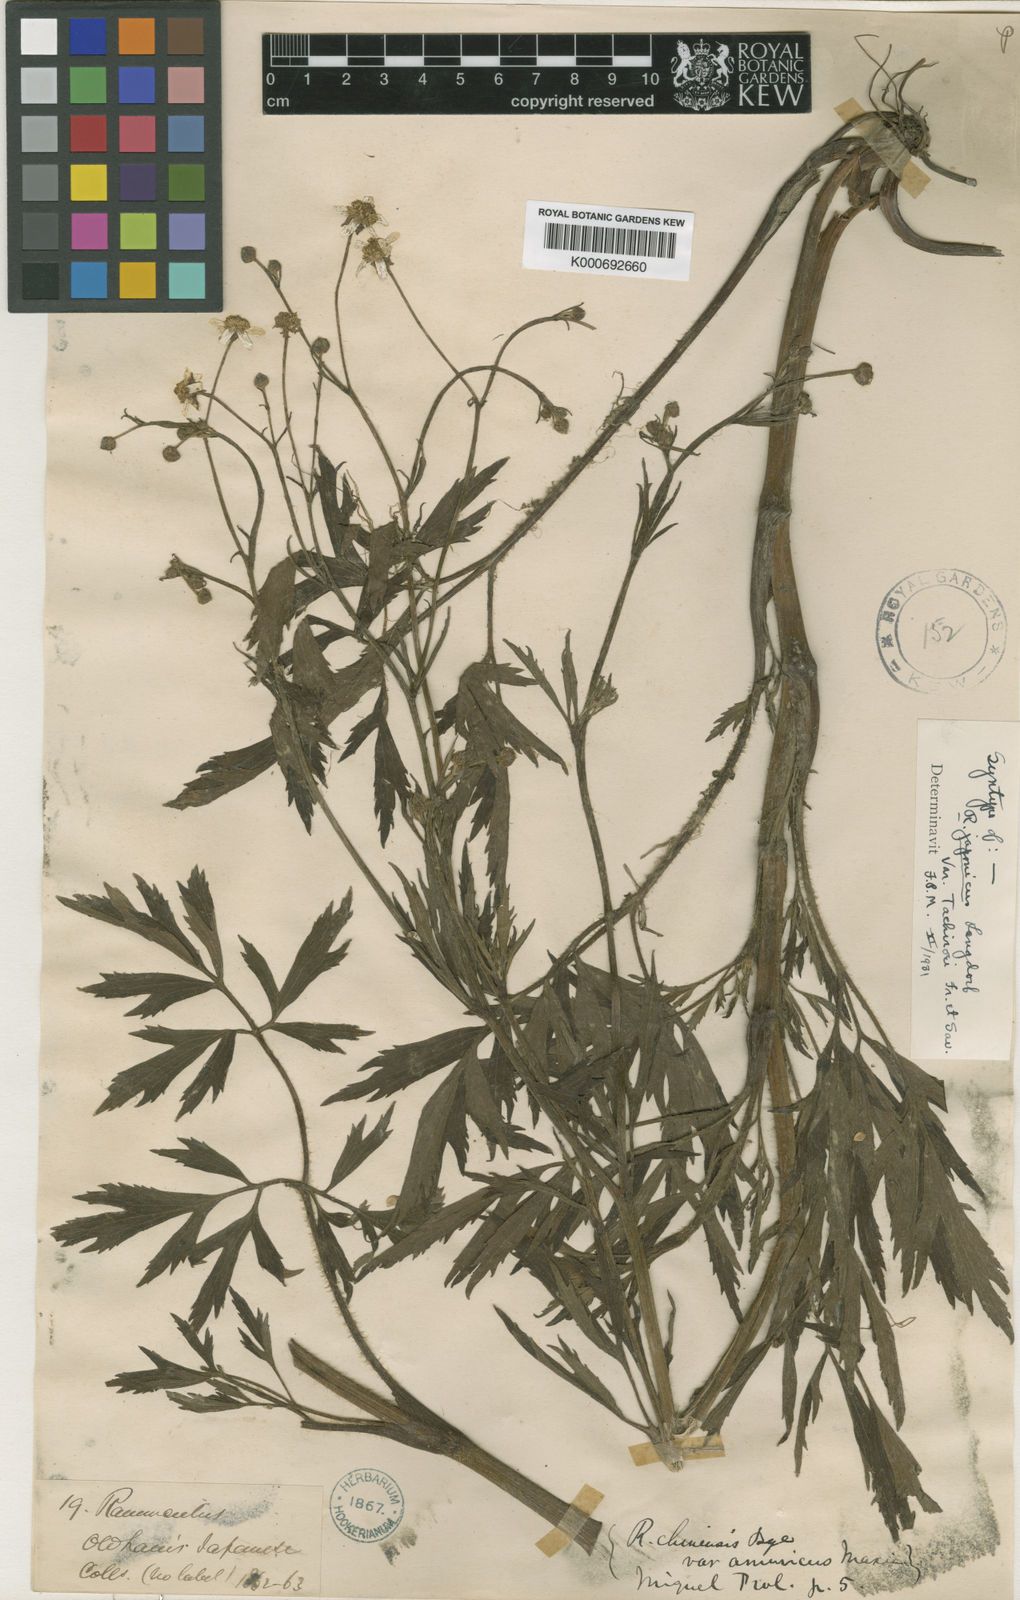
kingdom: Plantae
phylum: Tracheophyta
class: Magnoliopsida
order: Ranunculales
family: Ranunculaceae
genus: Ranunculus
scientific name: Ranunculus acris
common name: Meadow buttercup
